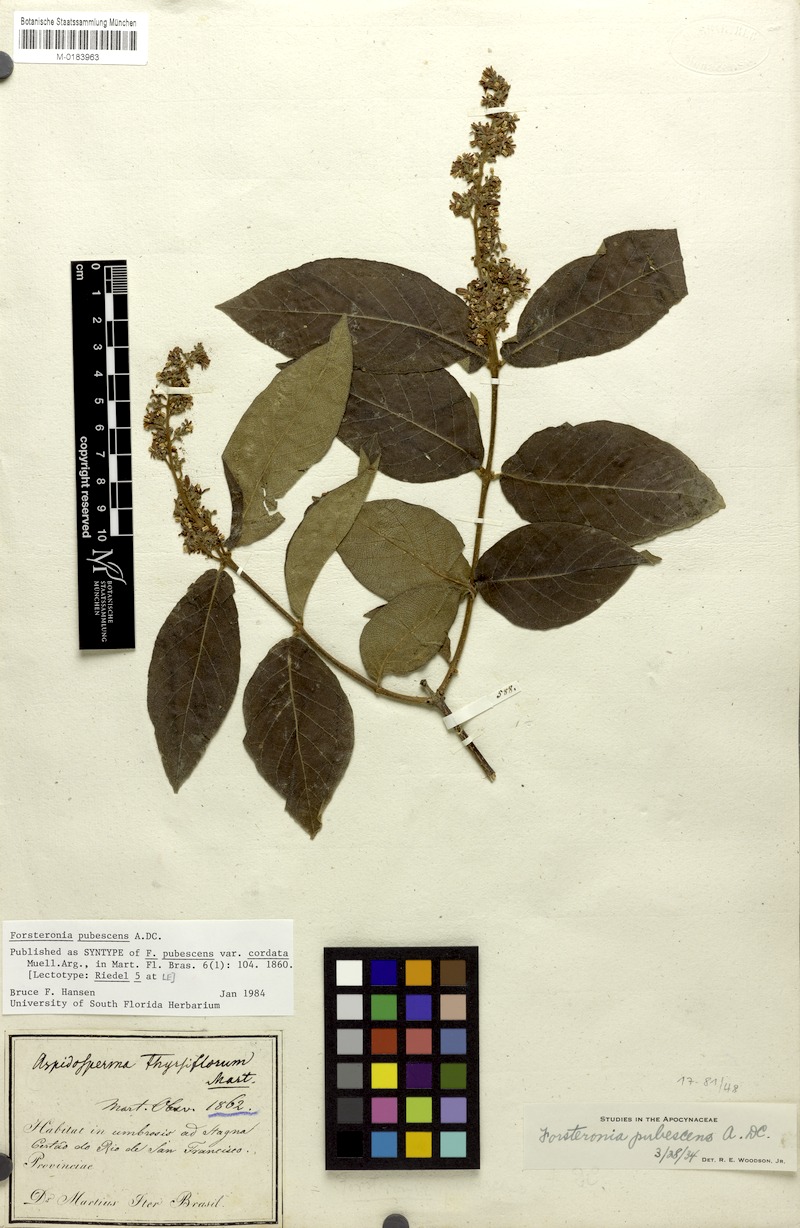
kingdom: Plantae
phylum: Tracheophyta
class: Magnoliopsida
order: Gentianales
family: Apocynaceae
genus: Forsteronia
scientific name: Forsteronia pubescens
